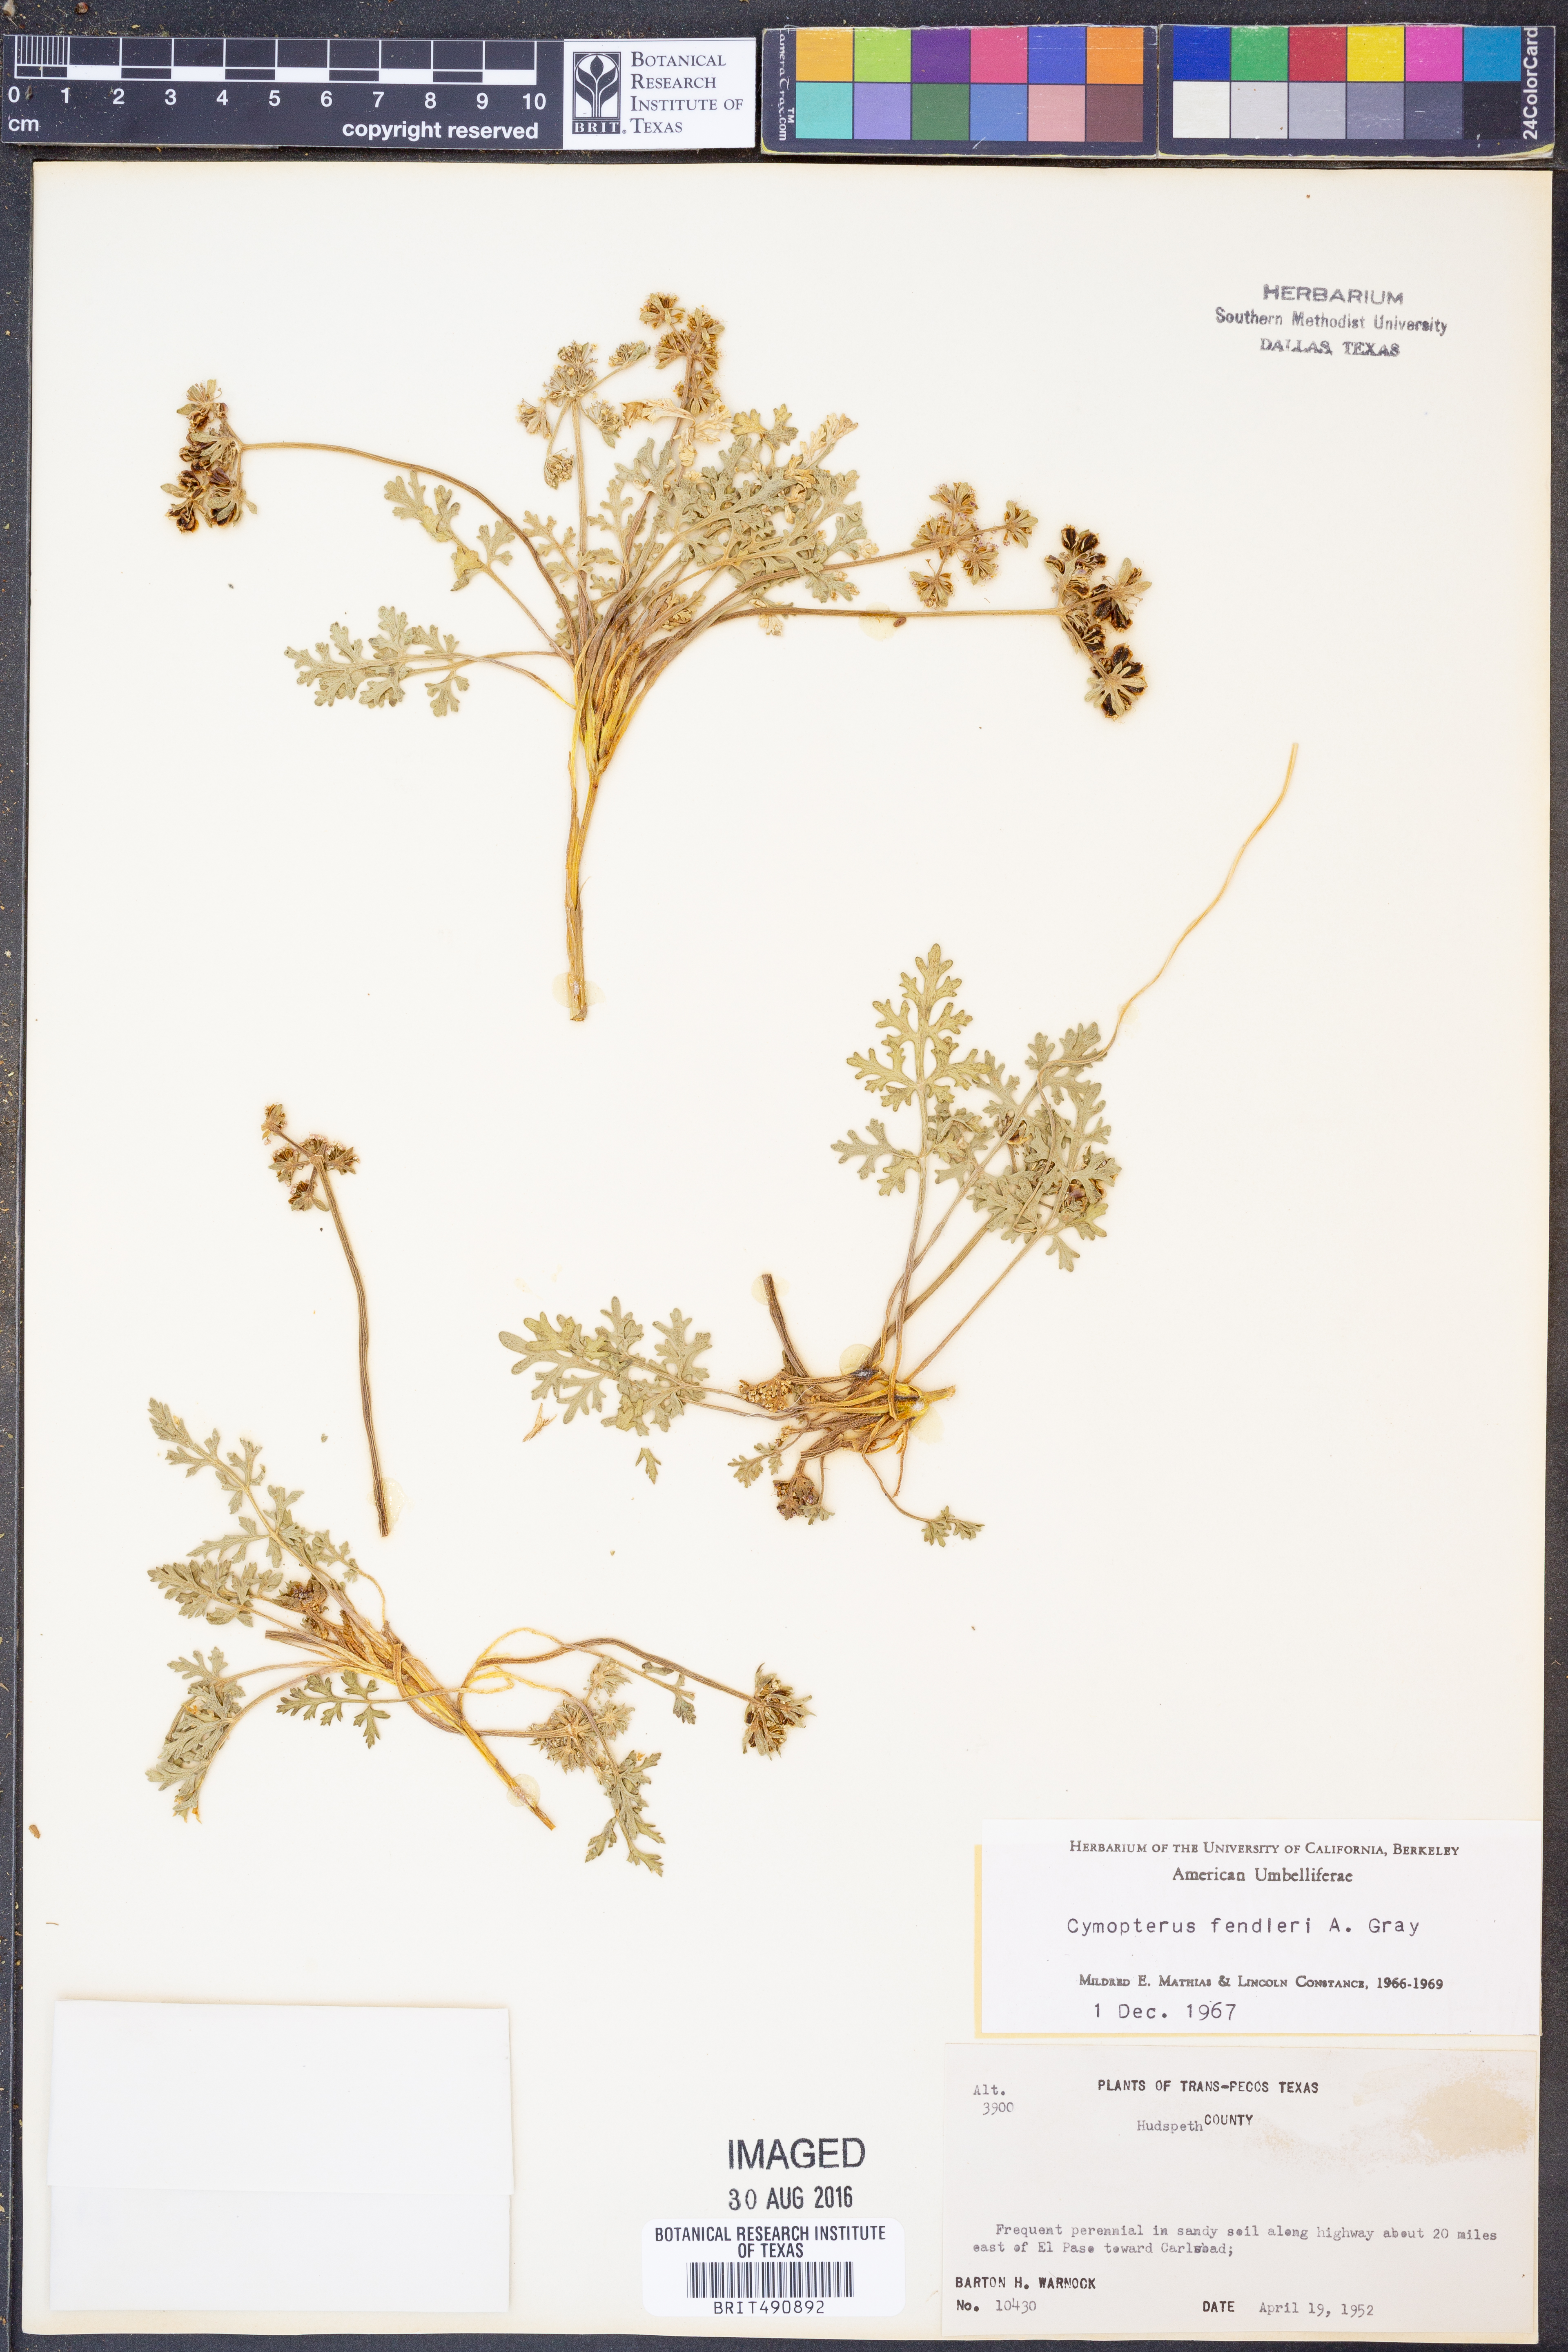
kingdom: Plantae
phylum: Tracheophyta
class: Magnoliopsida
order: Apiales
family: Apiaceae
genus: Cymopterus
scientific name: Cymopterus glomeratus
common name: Plains spring parsley
